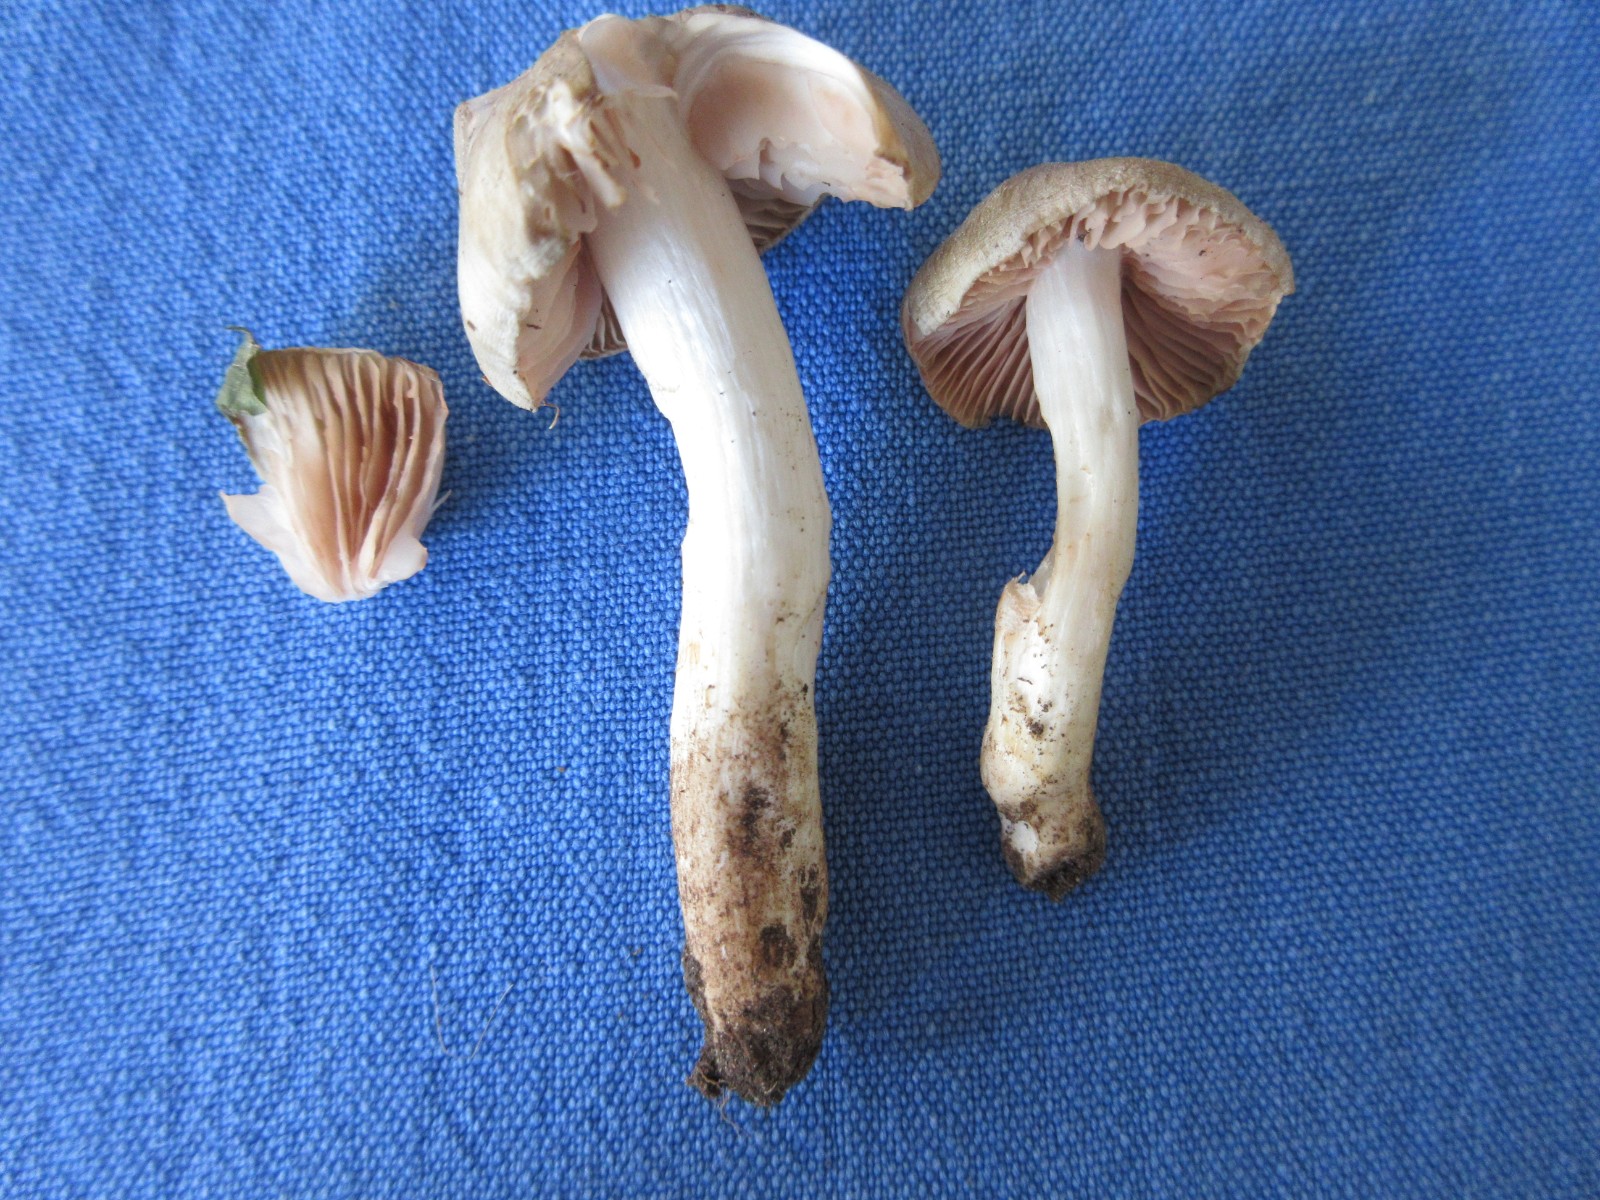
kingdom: Fungi
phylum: Basidiomycota
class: Agaricomycetes
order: Agaricales
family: Entolomataceae
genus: Entoloma
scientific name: Entoloma
